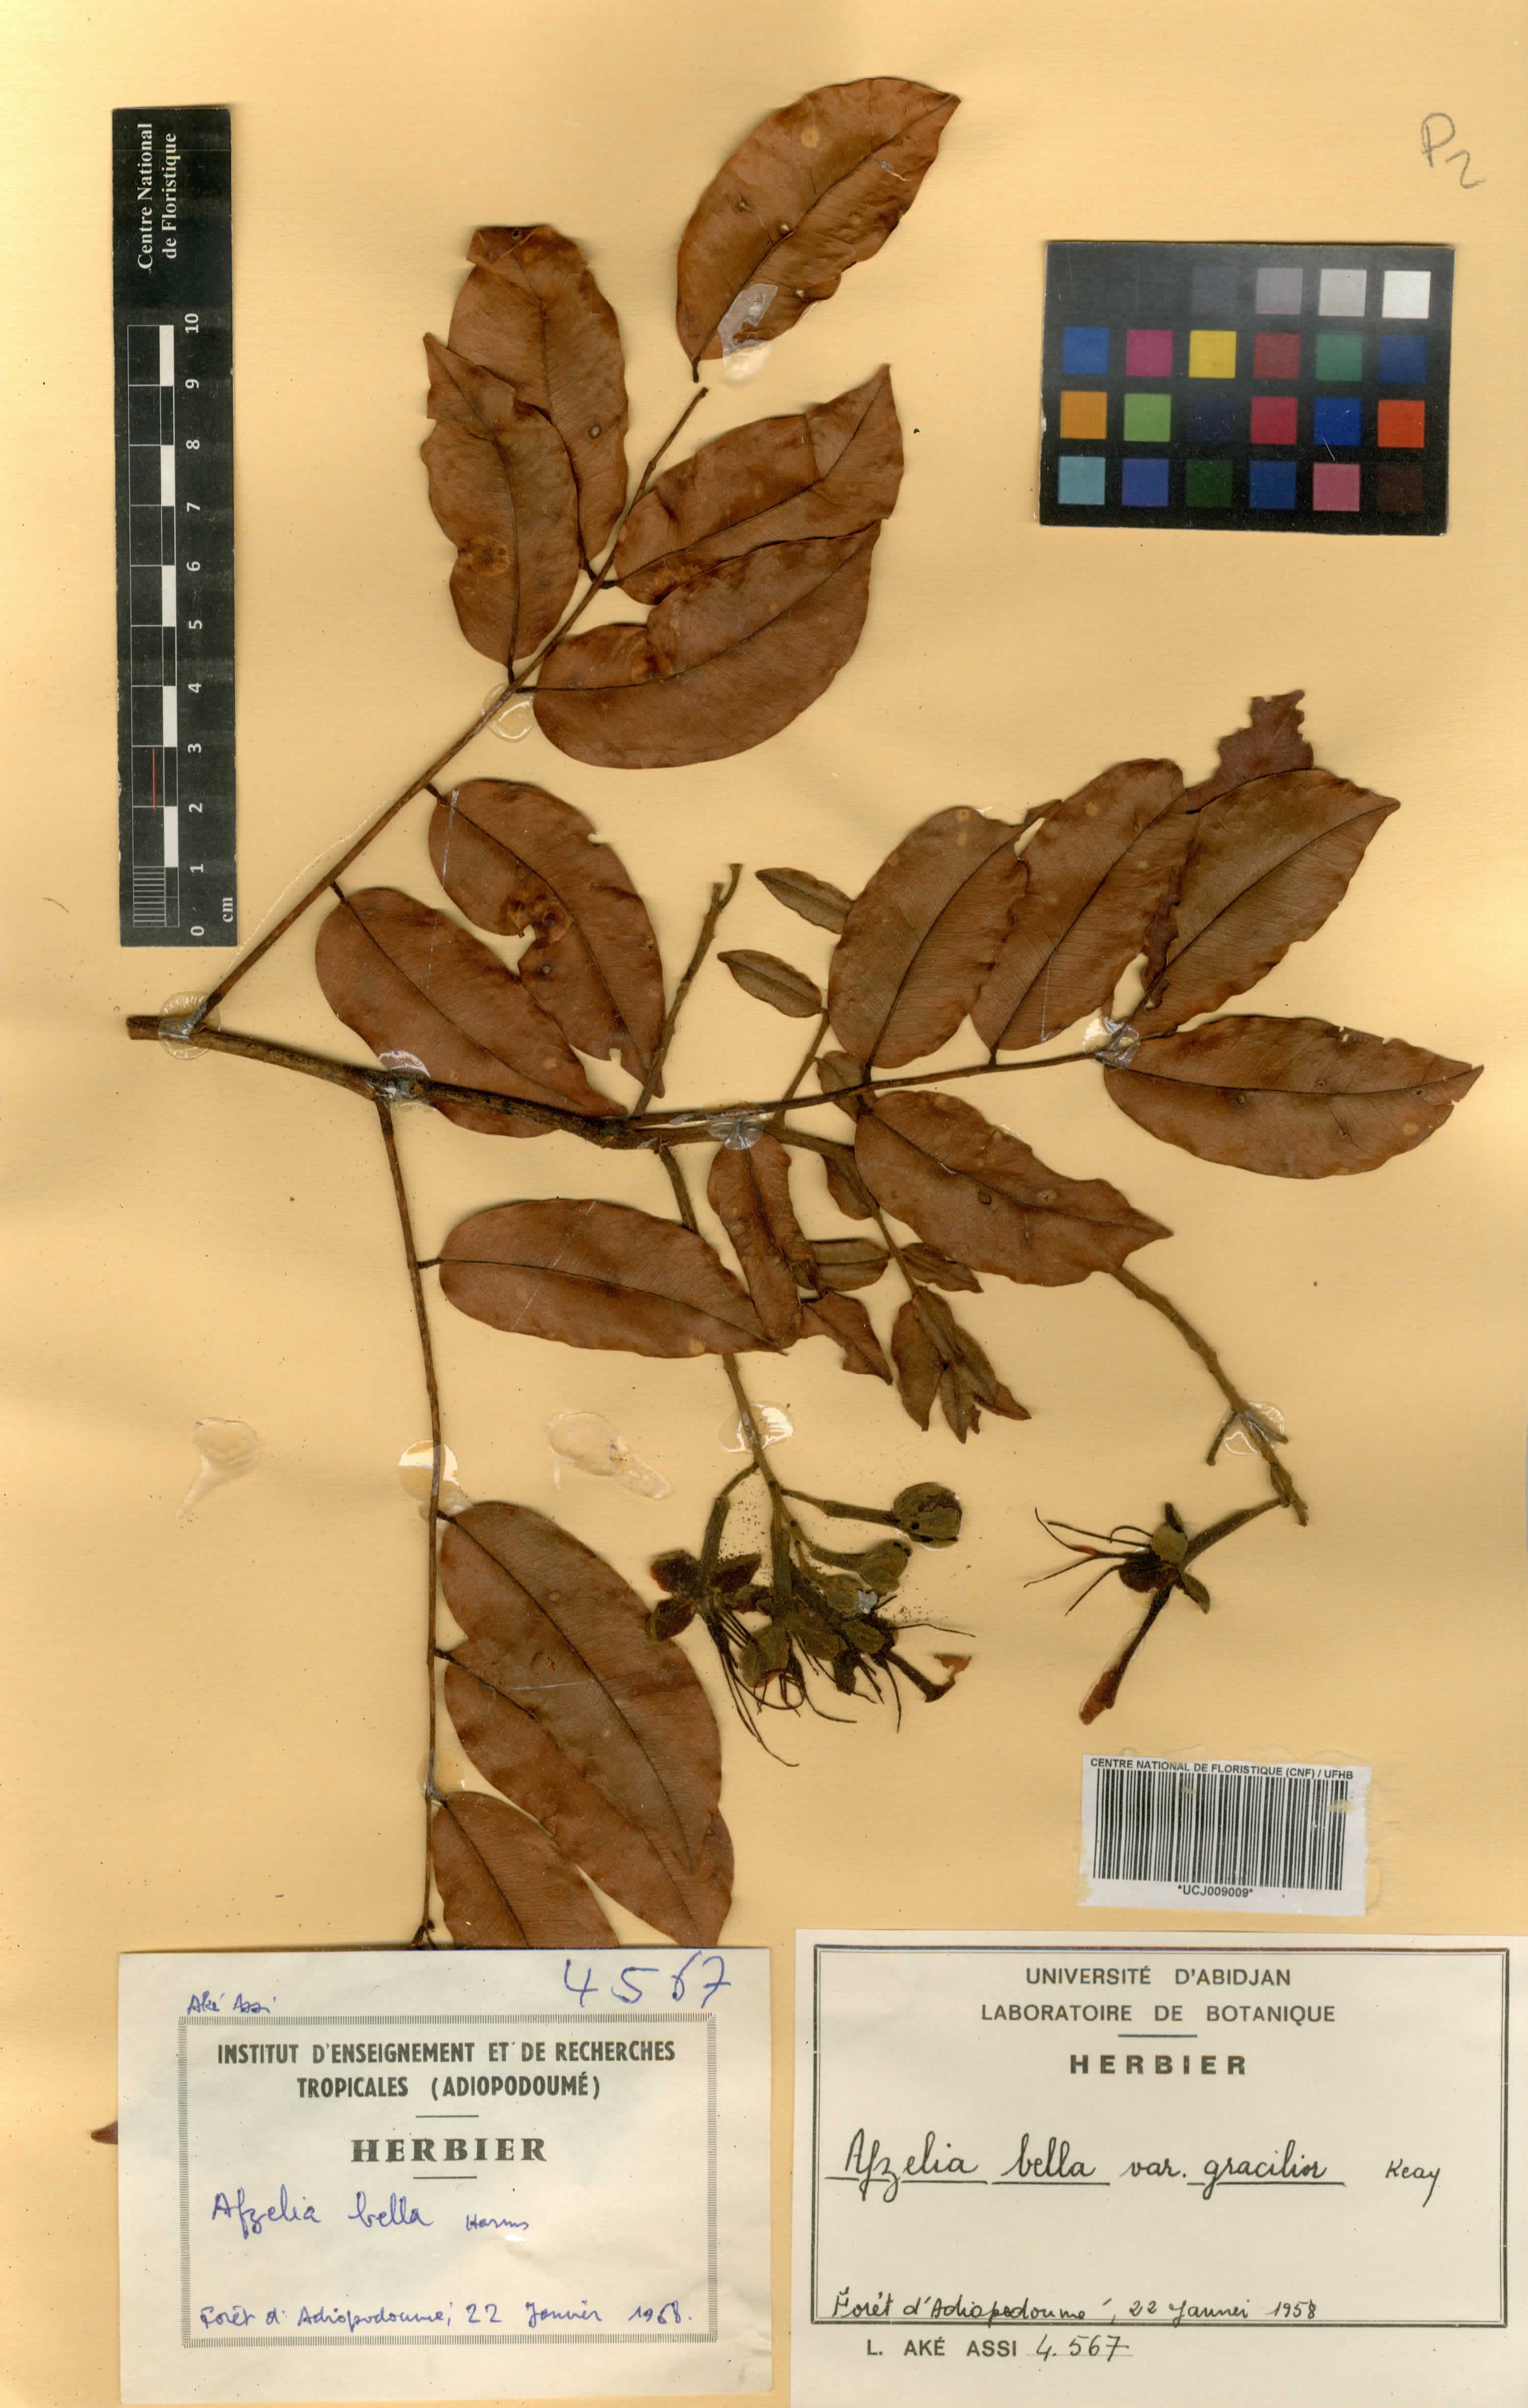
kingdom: Plantae
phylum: Tracheophyta
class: Magnoliopsida
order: Fabales
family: Fabaceae
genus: Afzelia
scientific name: Afzelia bella
